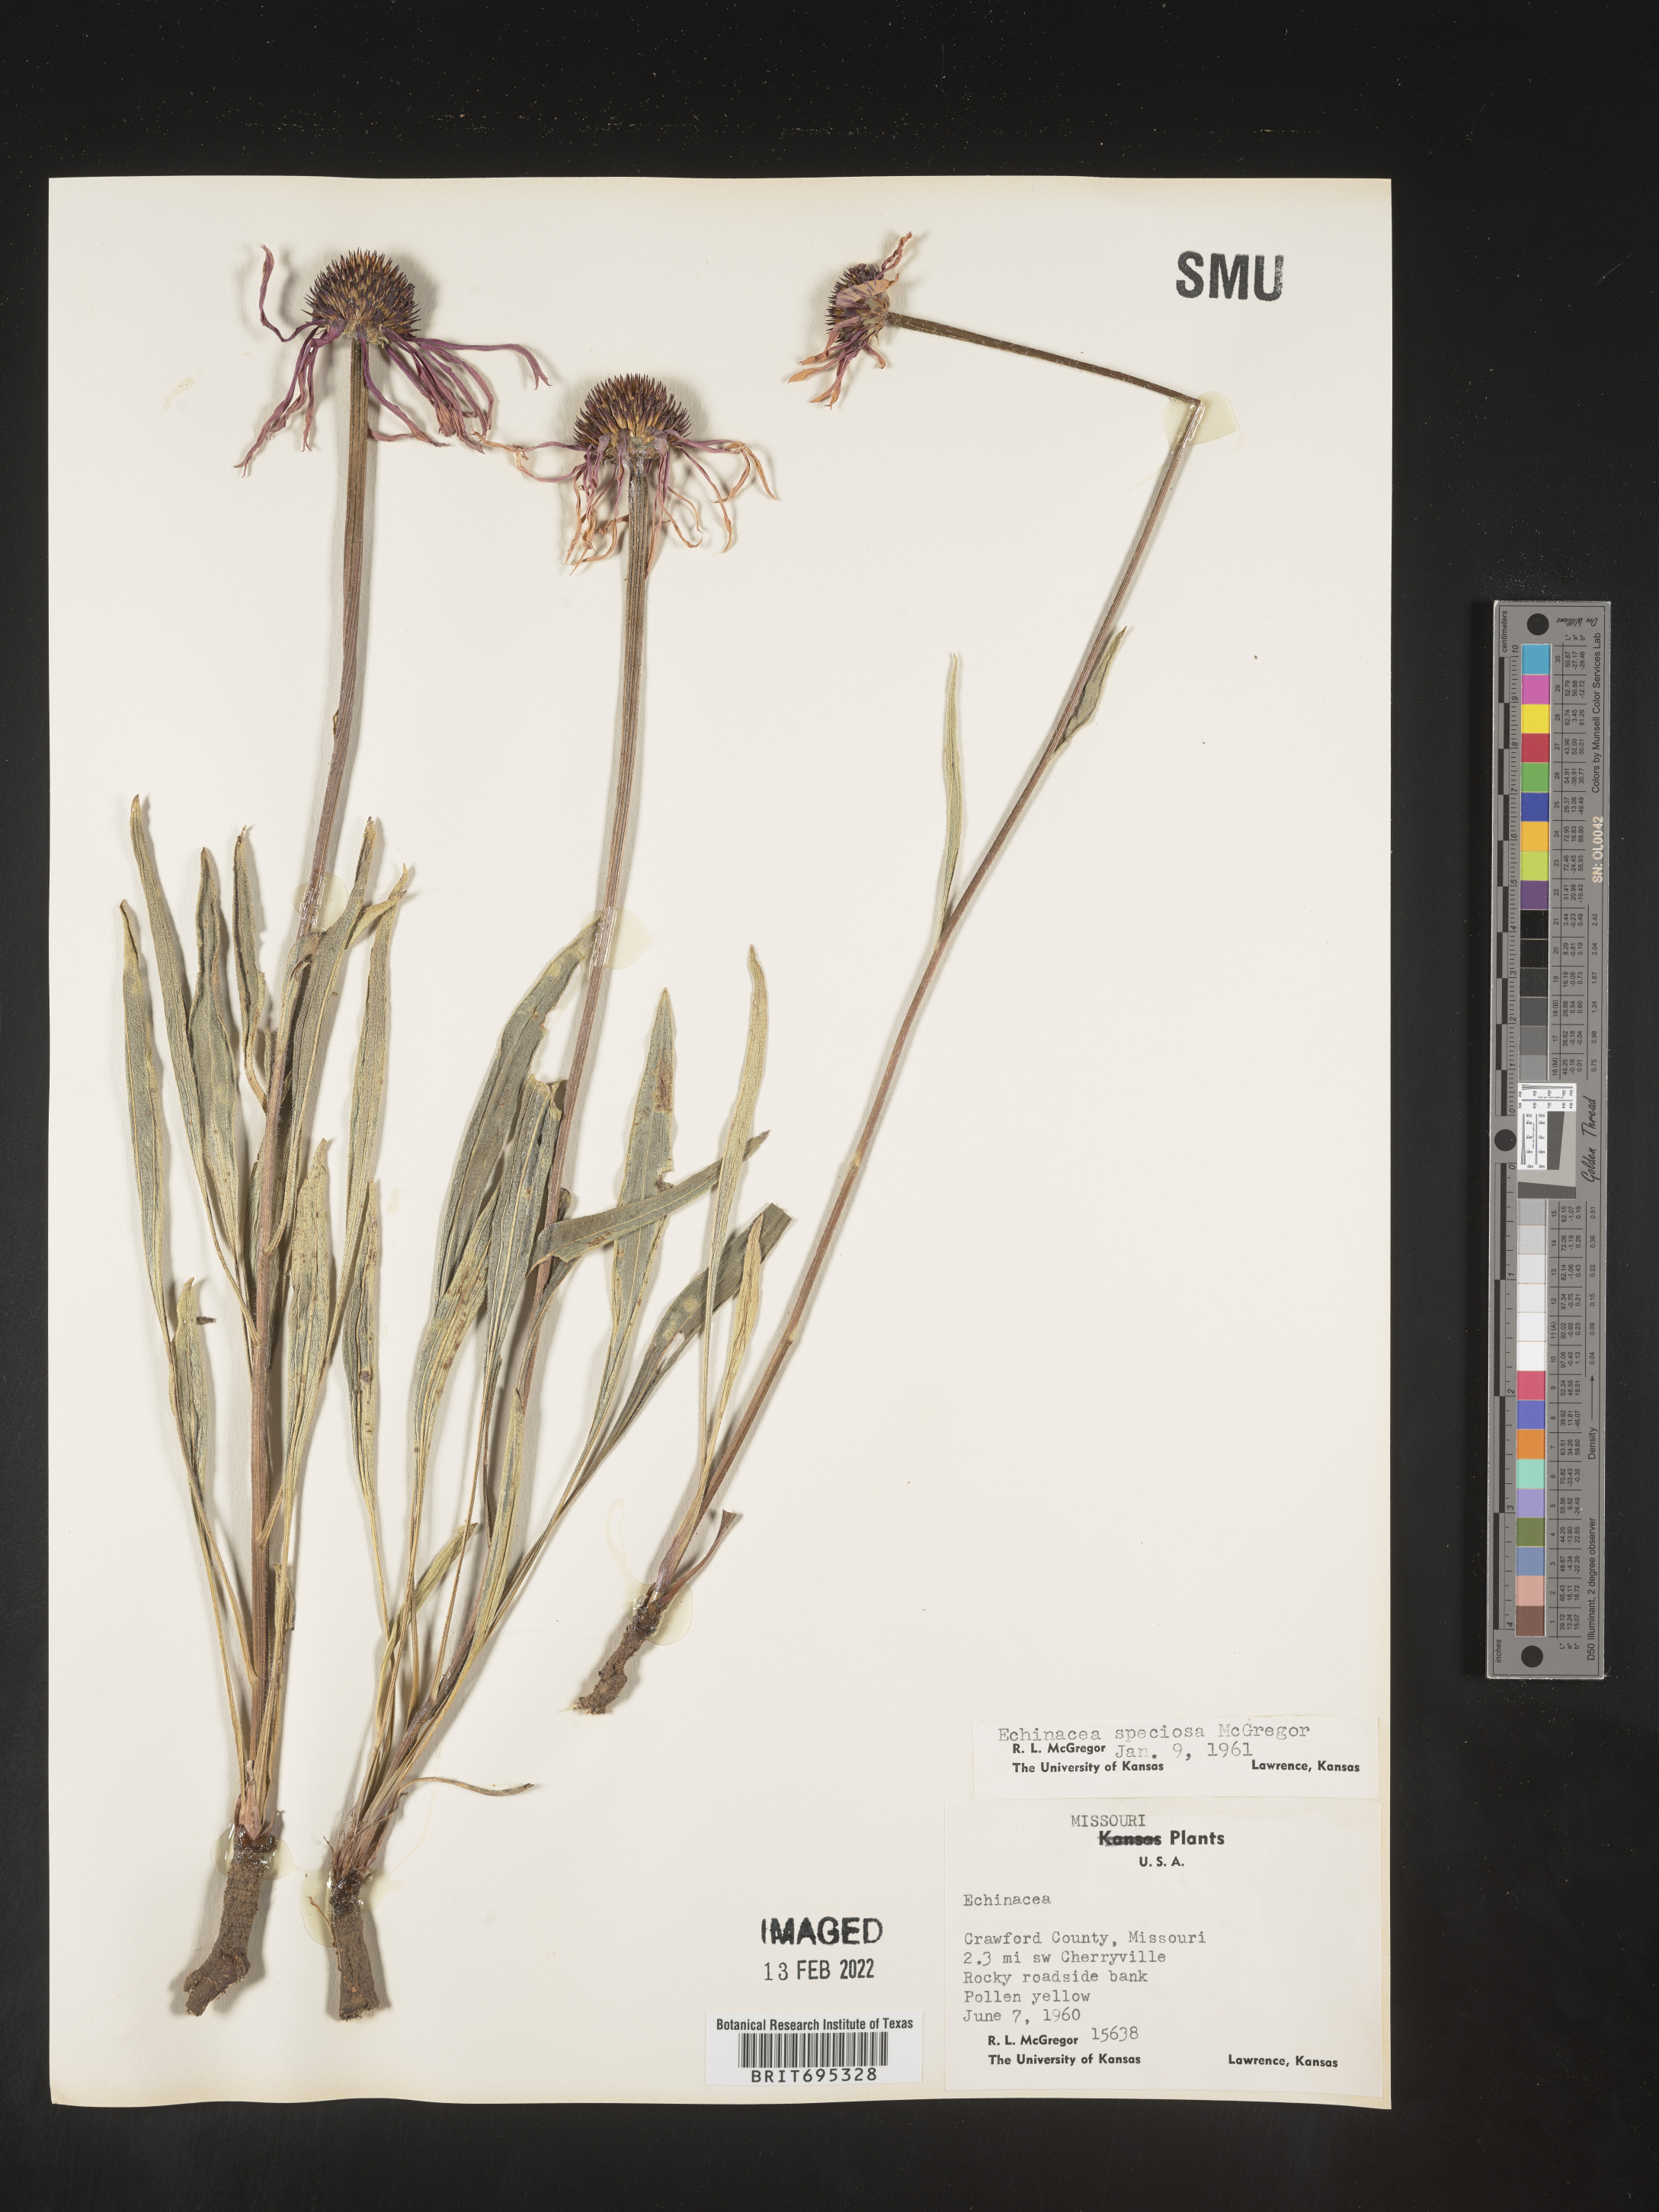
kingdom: Plantae
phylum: Tracheophyta
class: Magnoliopsida
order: Asterales
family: Asteraceae
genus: Echinacea
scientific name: Echinacea simulata
